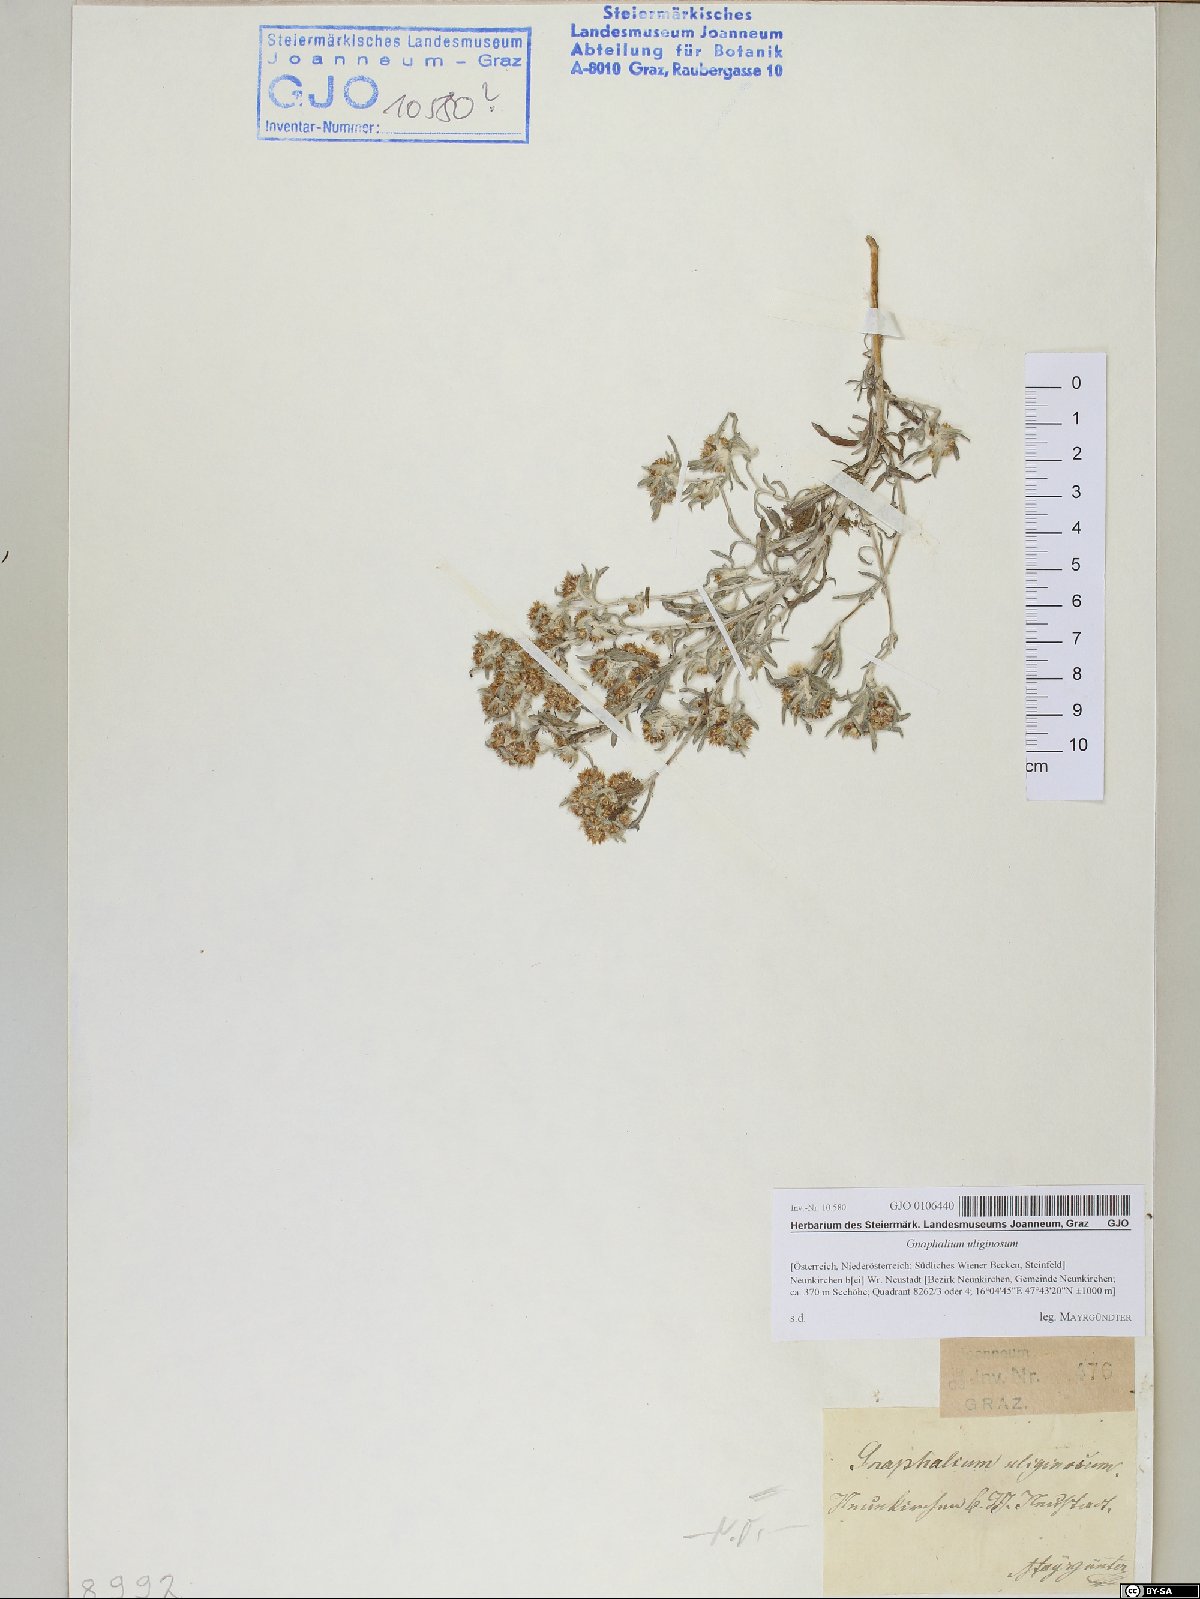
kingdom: Plantae
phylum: Tracheophyta
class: Magnoliopsida
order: Asterales
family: Asteraceae
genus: Gnaphalium
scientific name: Gnaphalium uliginosum
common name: Marsh cudweed
